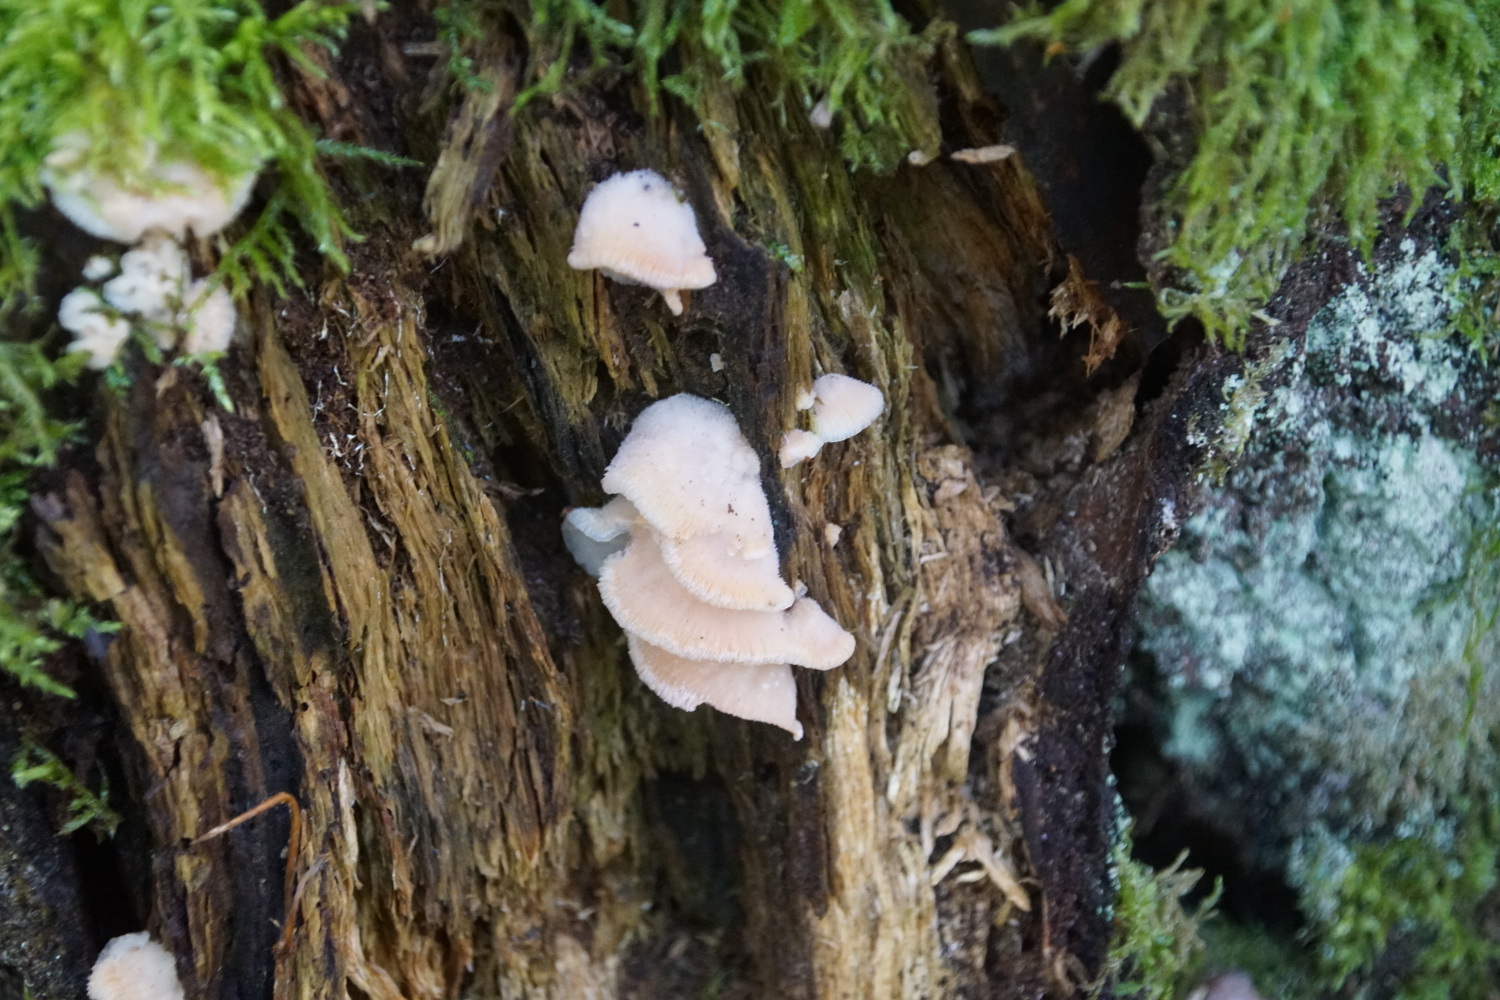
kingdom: Fungi
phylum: Basidiomycota
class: Agaricomycetes
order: Polyporales
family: Meruliaceae
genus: Phlebia
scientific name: Phlebia tremellosa
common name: bævrende åresvamp
